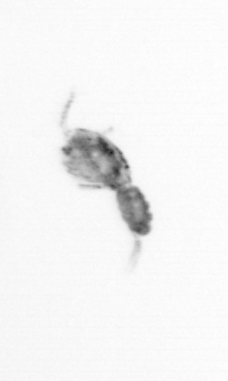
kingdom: Animalia
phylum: Arthropoda
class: Copepoda
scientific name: Copepoda
